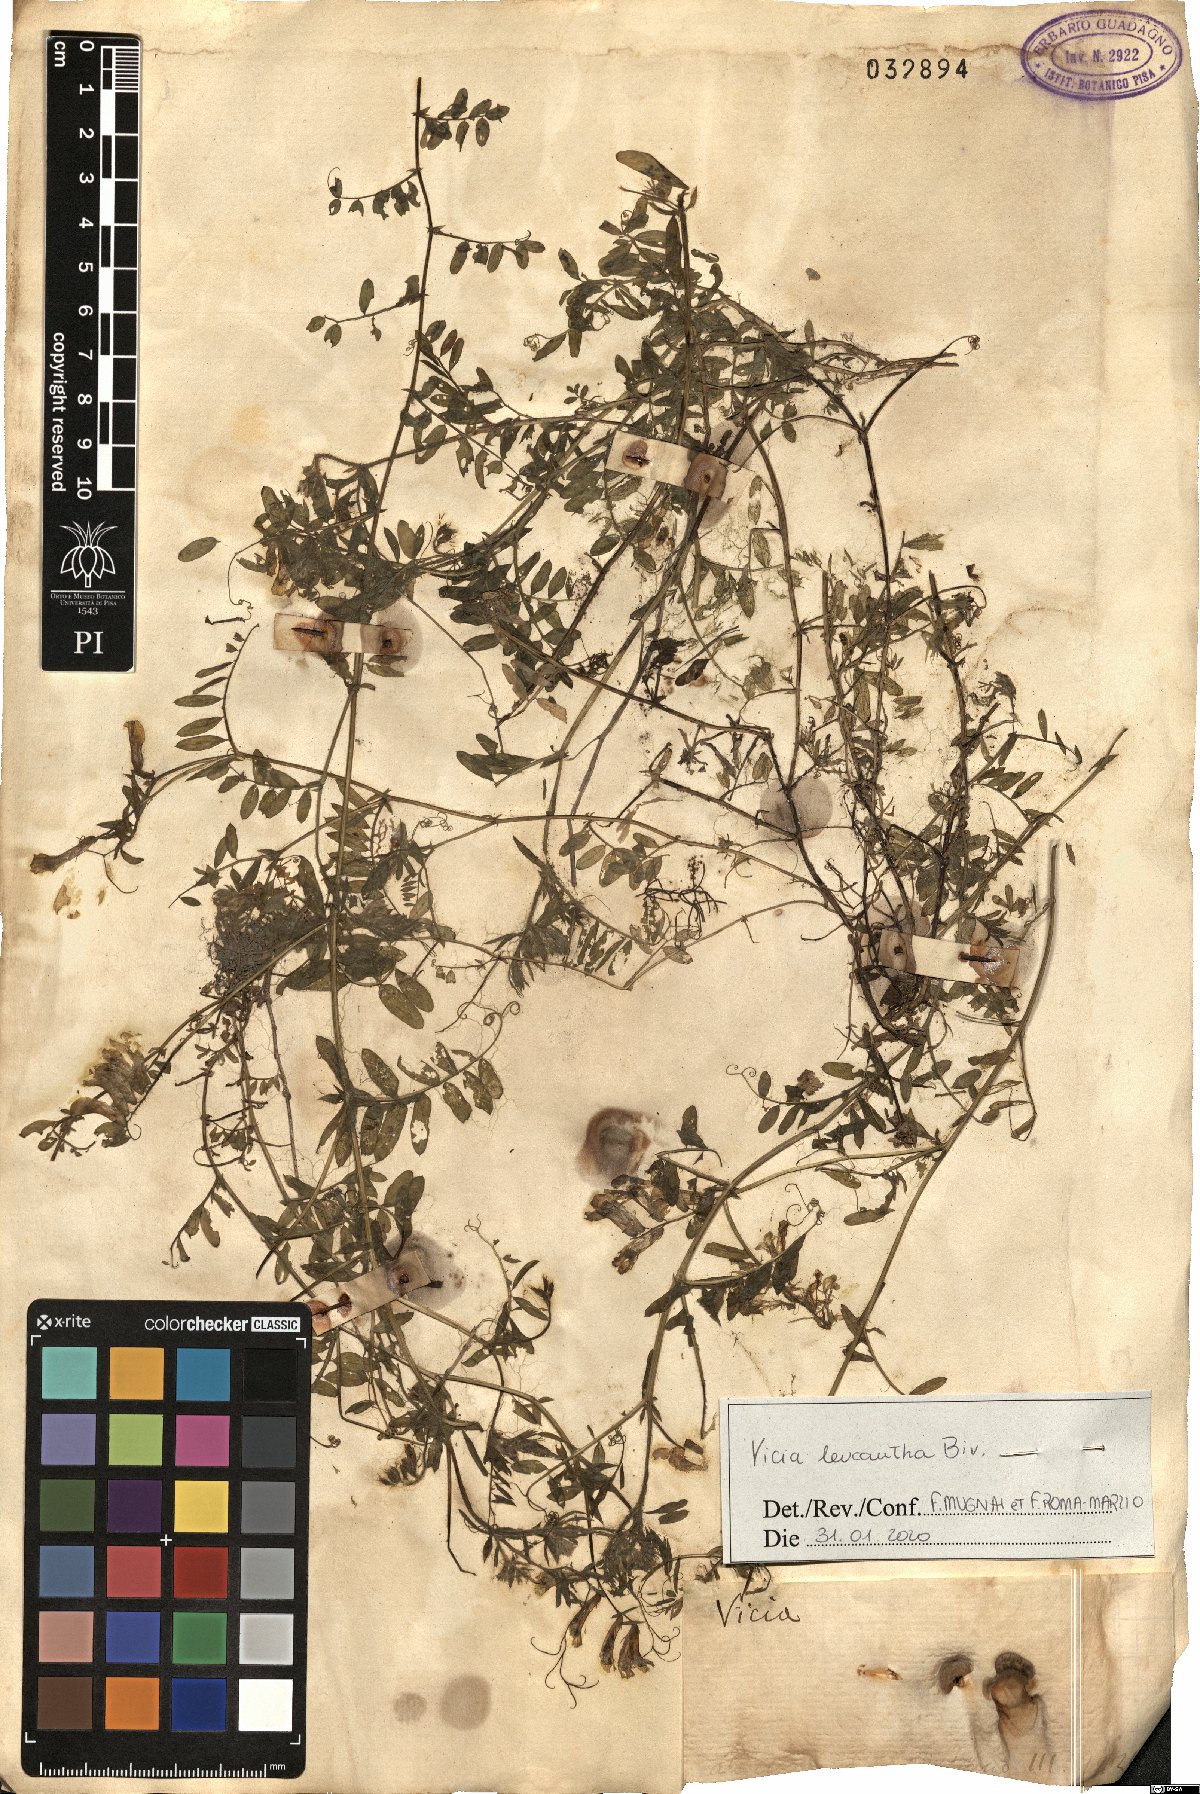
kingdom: Plantae
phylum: Tracheophyta
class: Magnoliopsida
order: Fabales
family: Fabaceae
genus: Vicia
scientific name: Vicia leucantha
